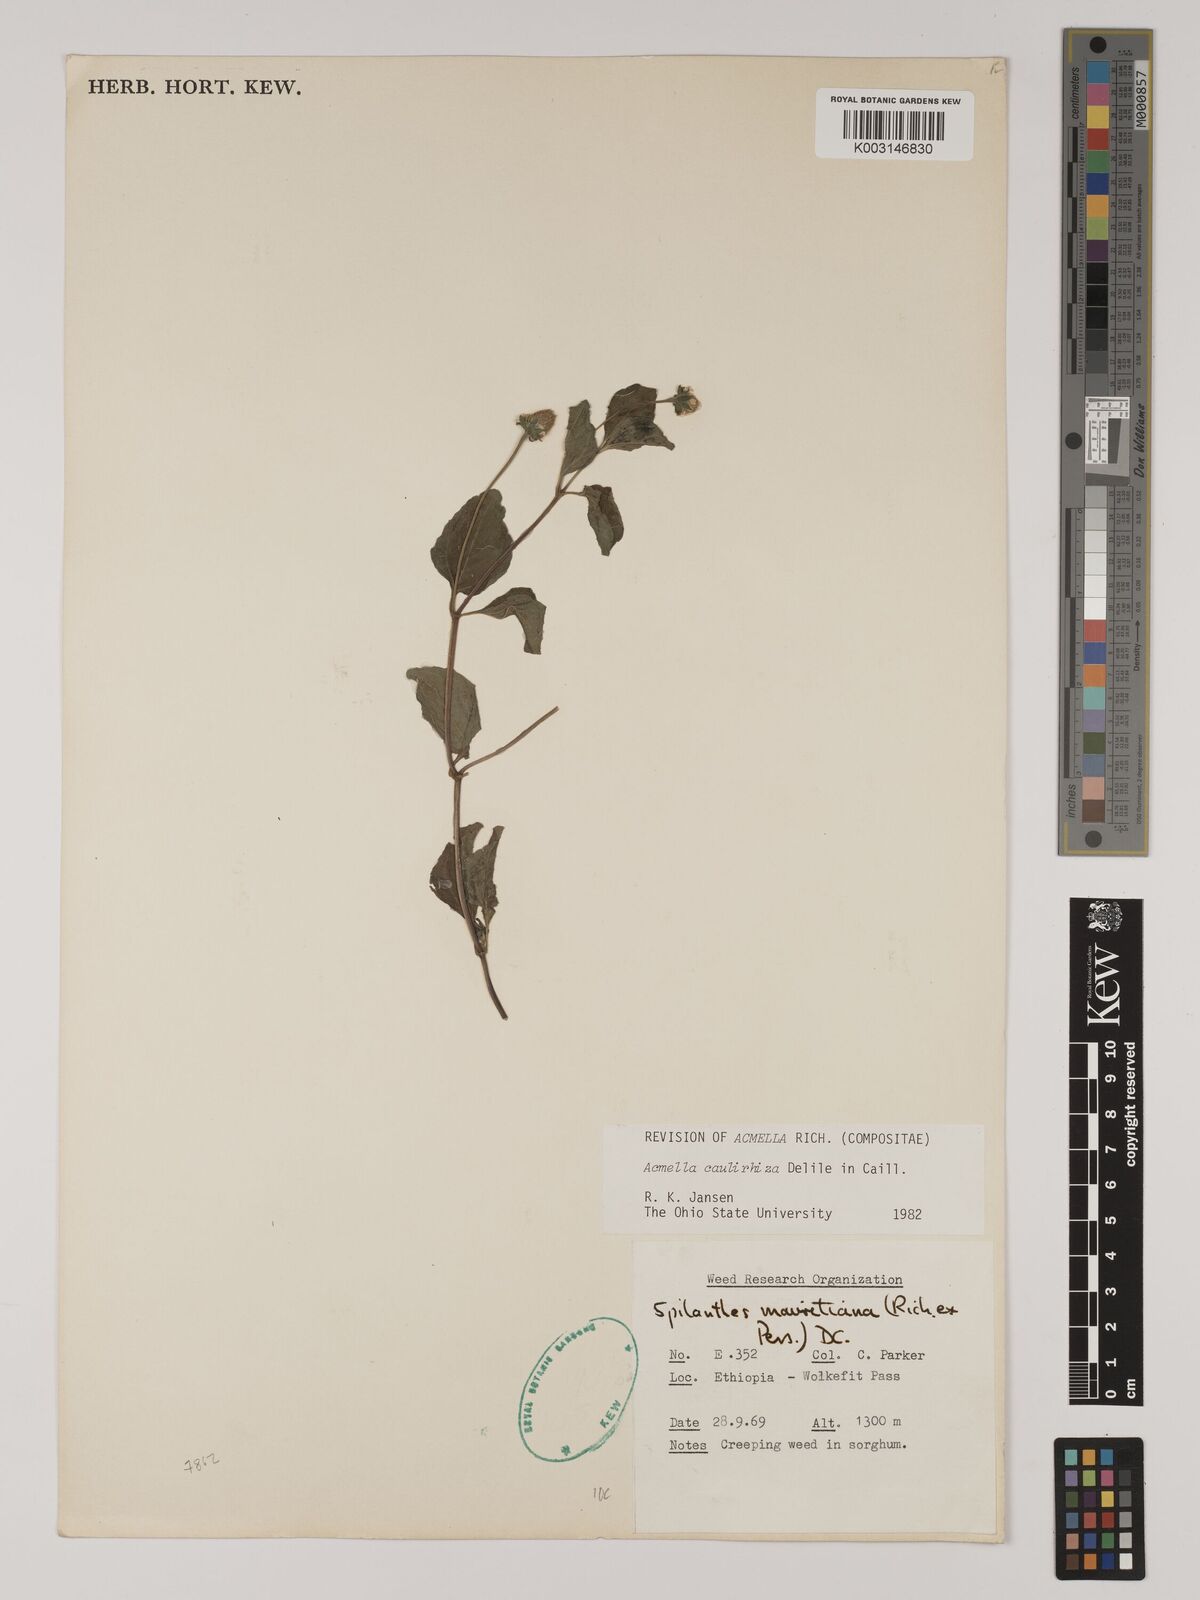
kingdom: Plantae
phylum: Tracheophyta
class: Magnoliopsida
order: Asterales
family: Asteraceae
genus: Acmella
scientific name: Acmella caulirhiza
